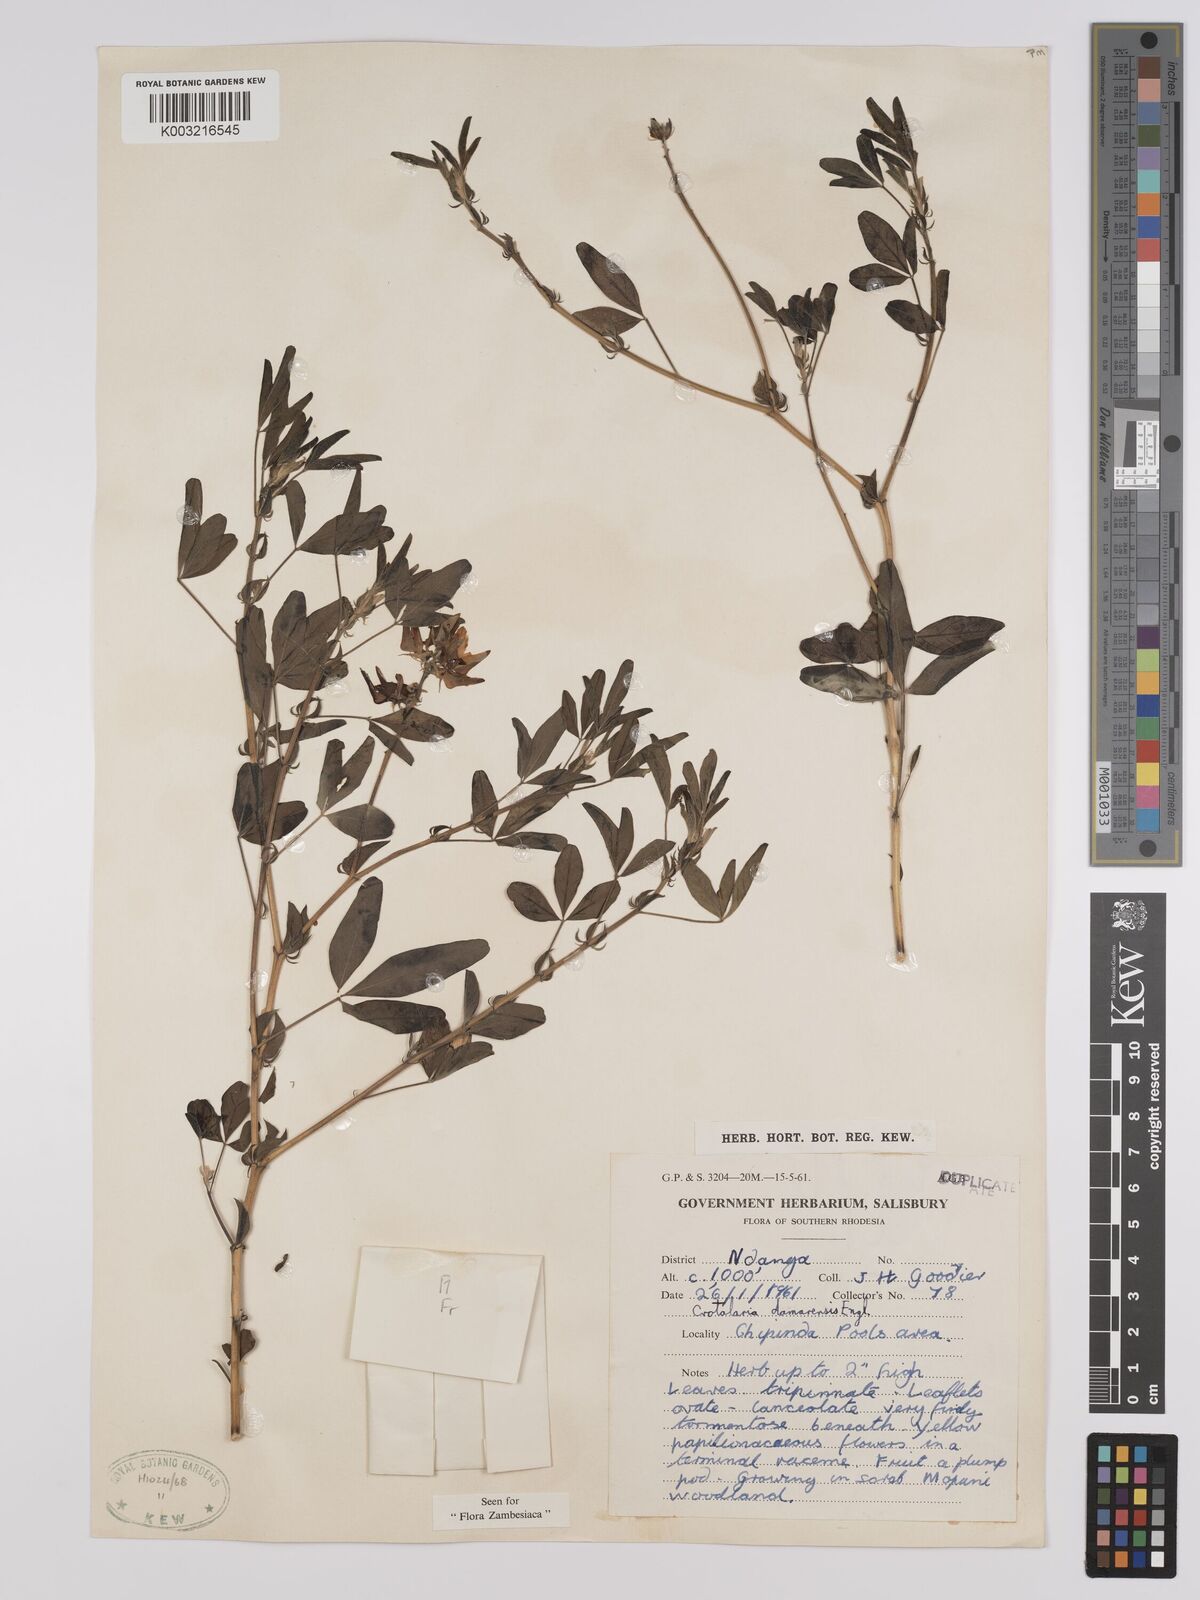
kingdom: Plantae
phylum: Tracheophyta
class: Magnoliopsida
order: Fabales
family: Fabaceae
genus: Crotalaria
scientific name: Crotalaria damarensis
